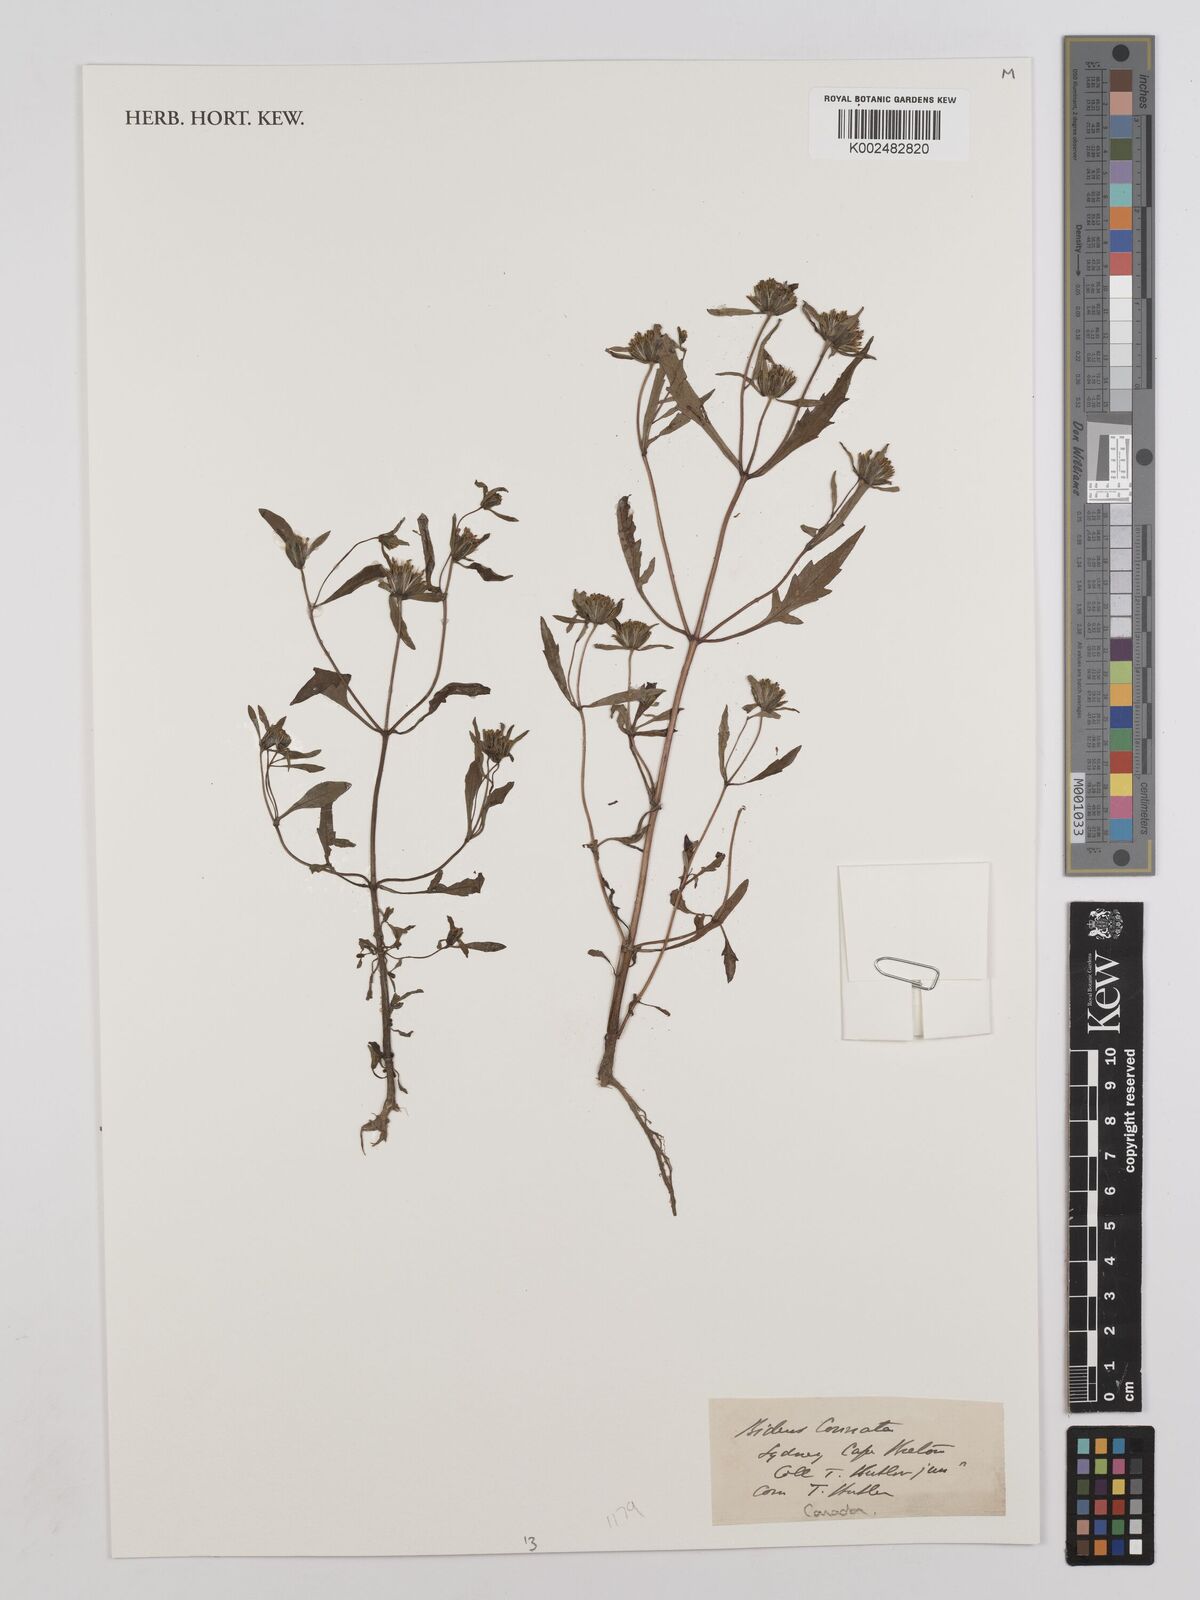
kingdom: Plantae
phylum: Tracheophyta
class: Magnoliopsida
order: Asterales
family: Asteraceae
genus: Bidens
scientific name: Bidens connata
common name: London bur-marigold
